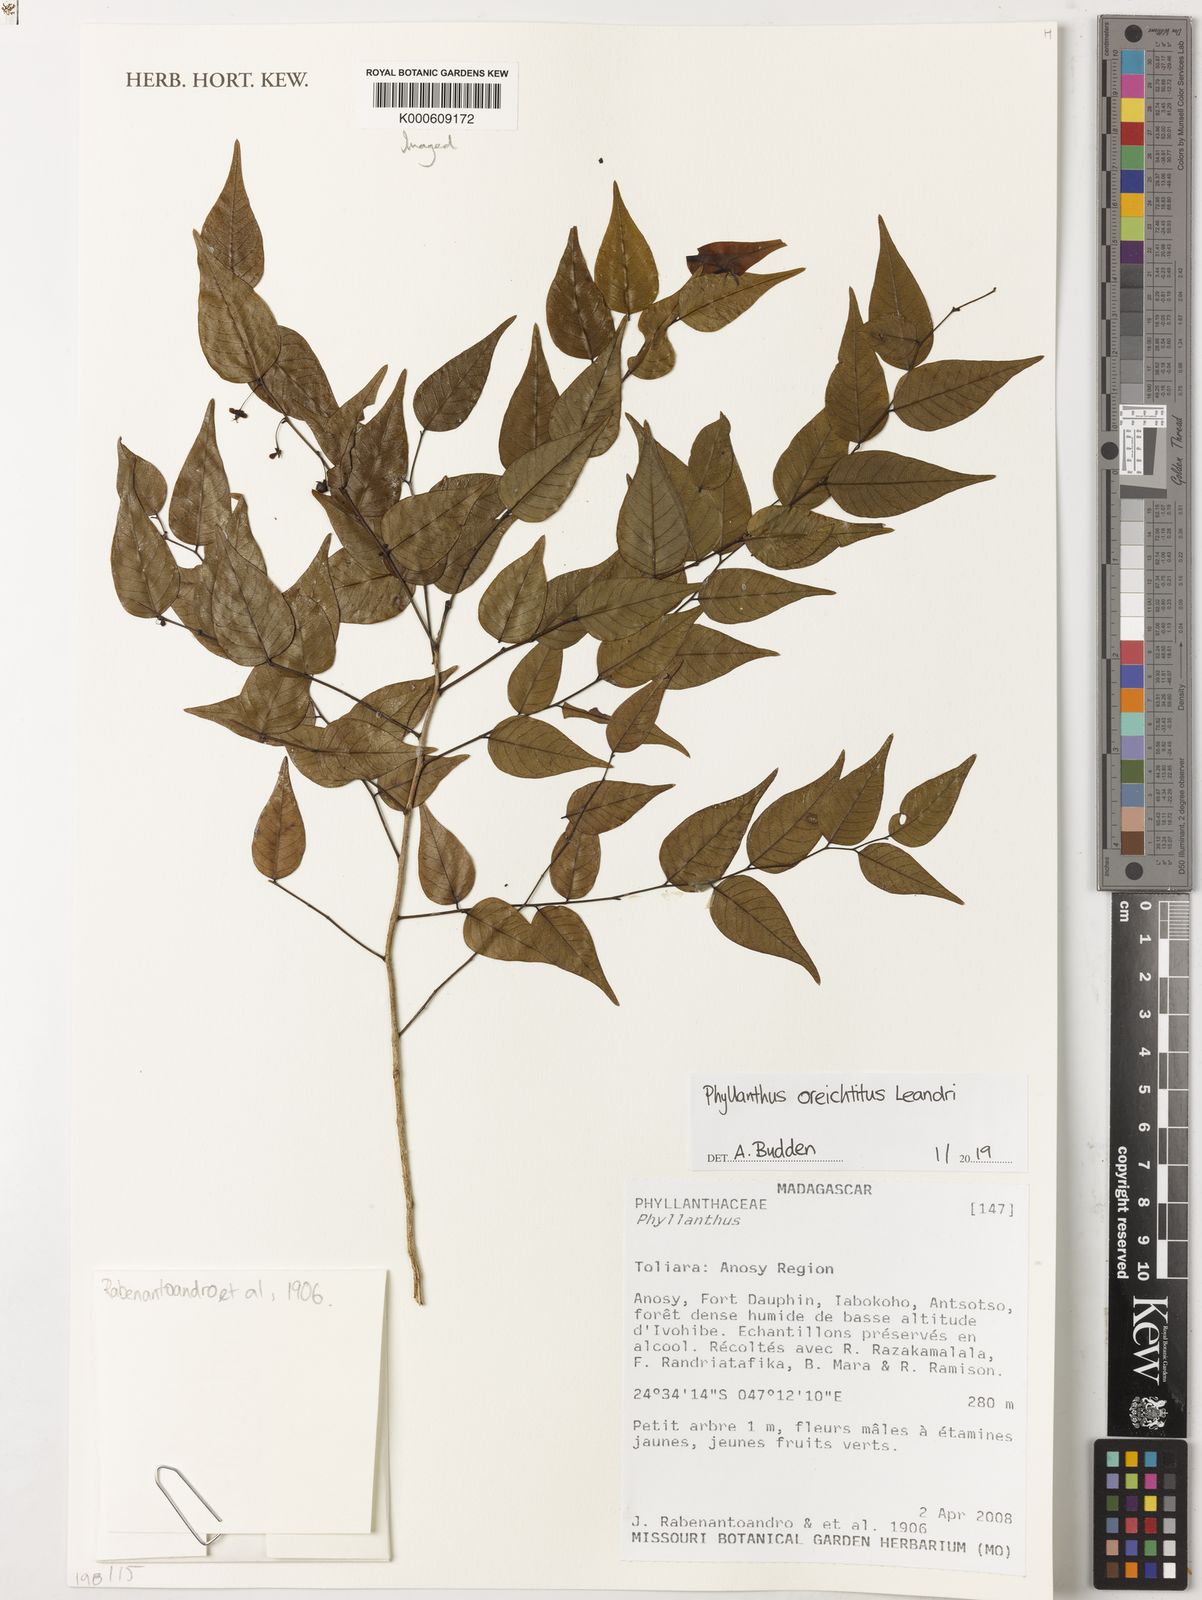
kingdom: Plantae
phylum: Tracheophyta
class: Magnoliopsida
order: Malpighiales
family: Phyllanthaceae
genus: Phyllanthus
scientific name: Phyllanthus oreichtitus
